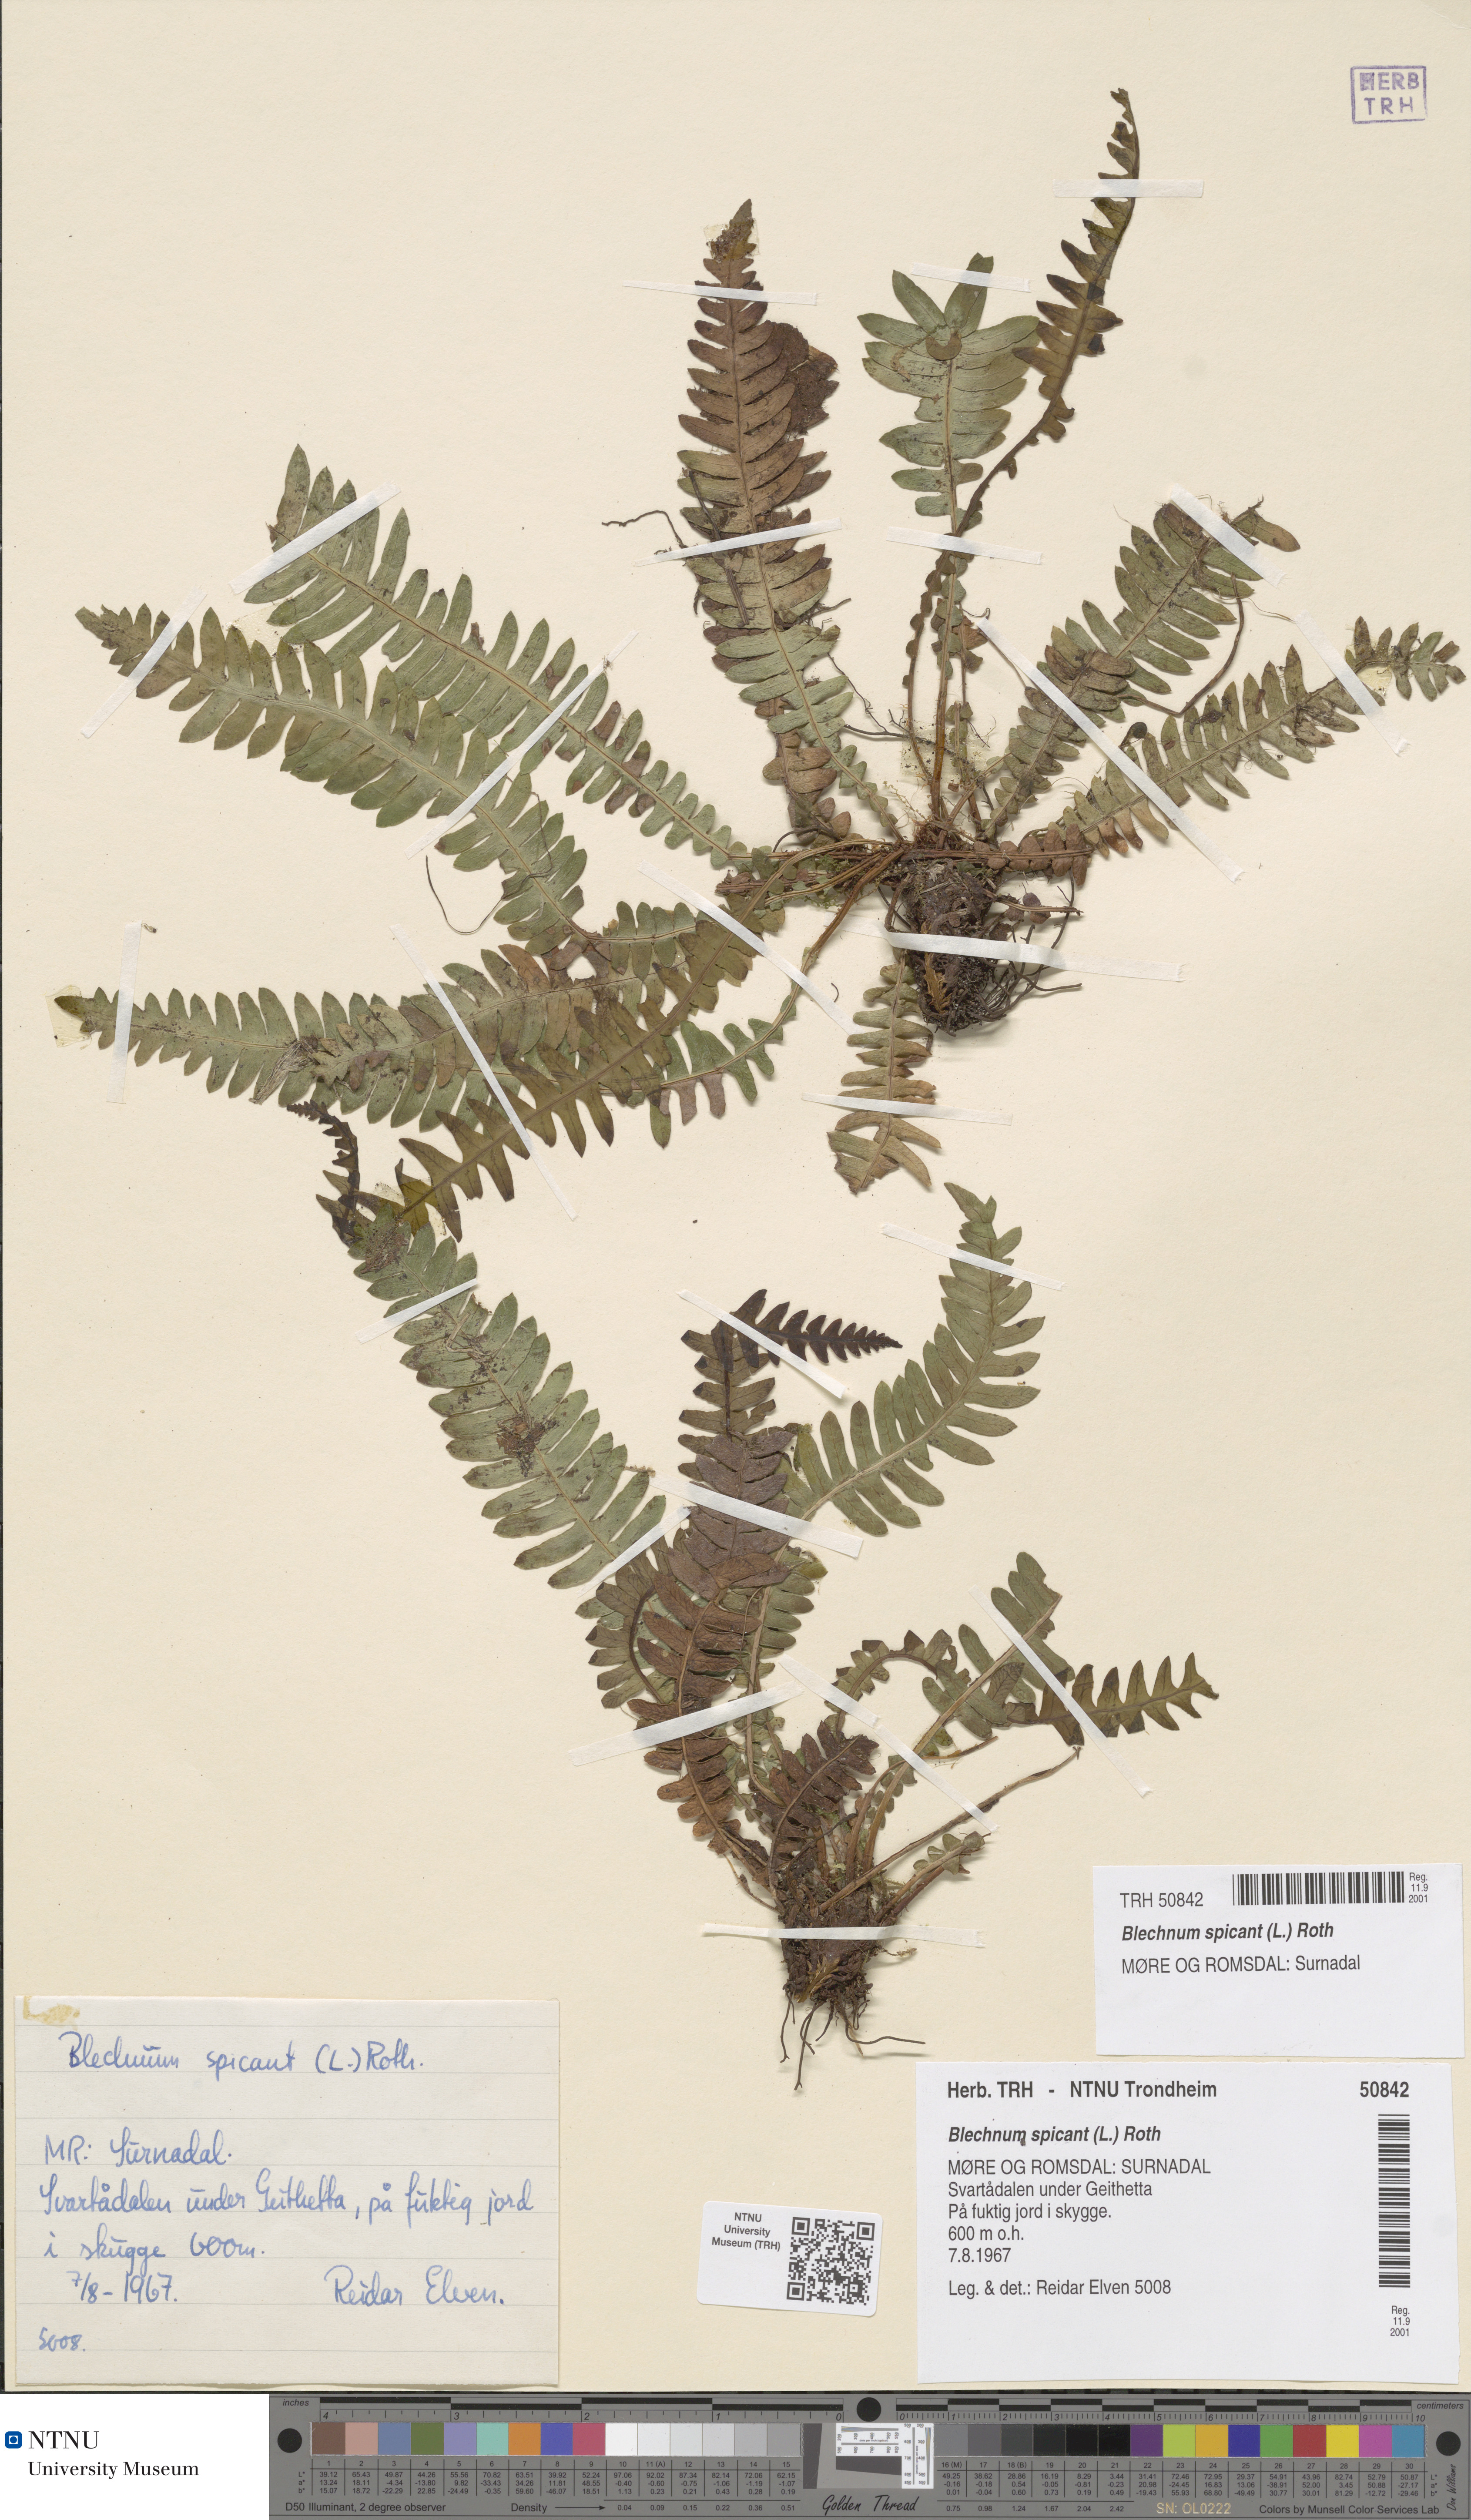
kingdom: Plantae
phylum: Tracheophyta
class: Polypodiopsida
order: Polypodiales
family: Blechnaceae
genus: Struthiopteris
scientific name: Struthiopteris spicant
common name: Deer fern
